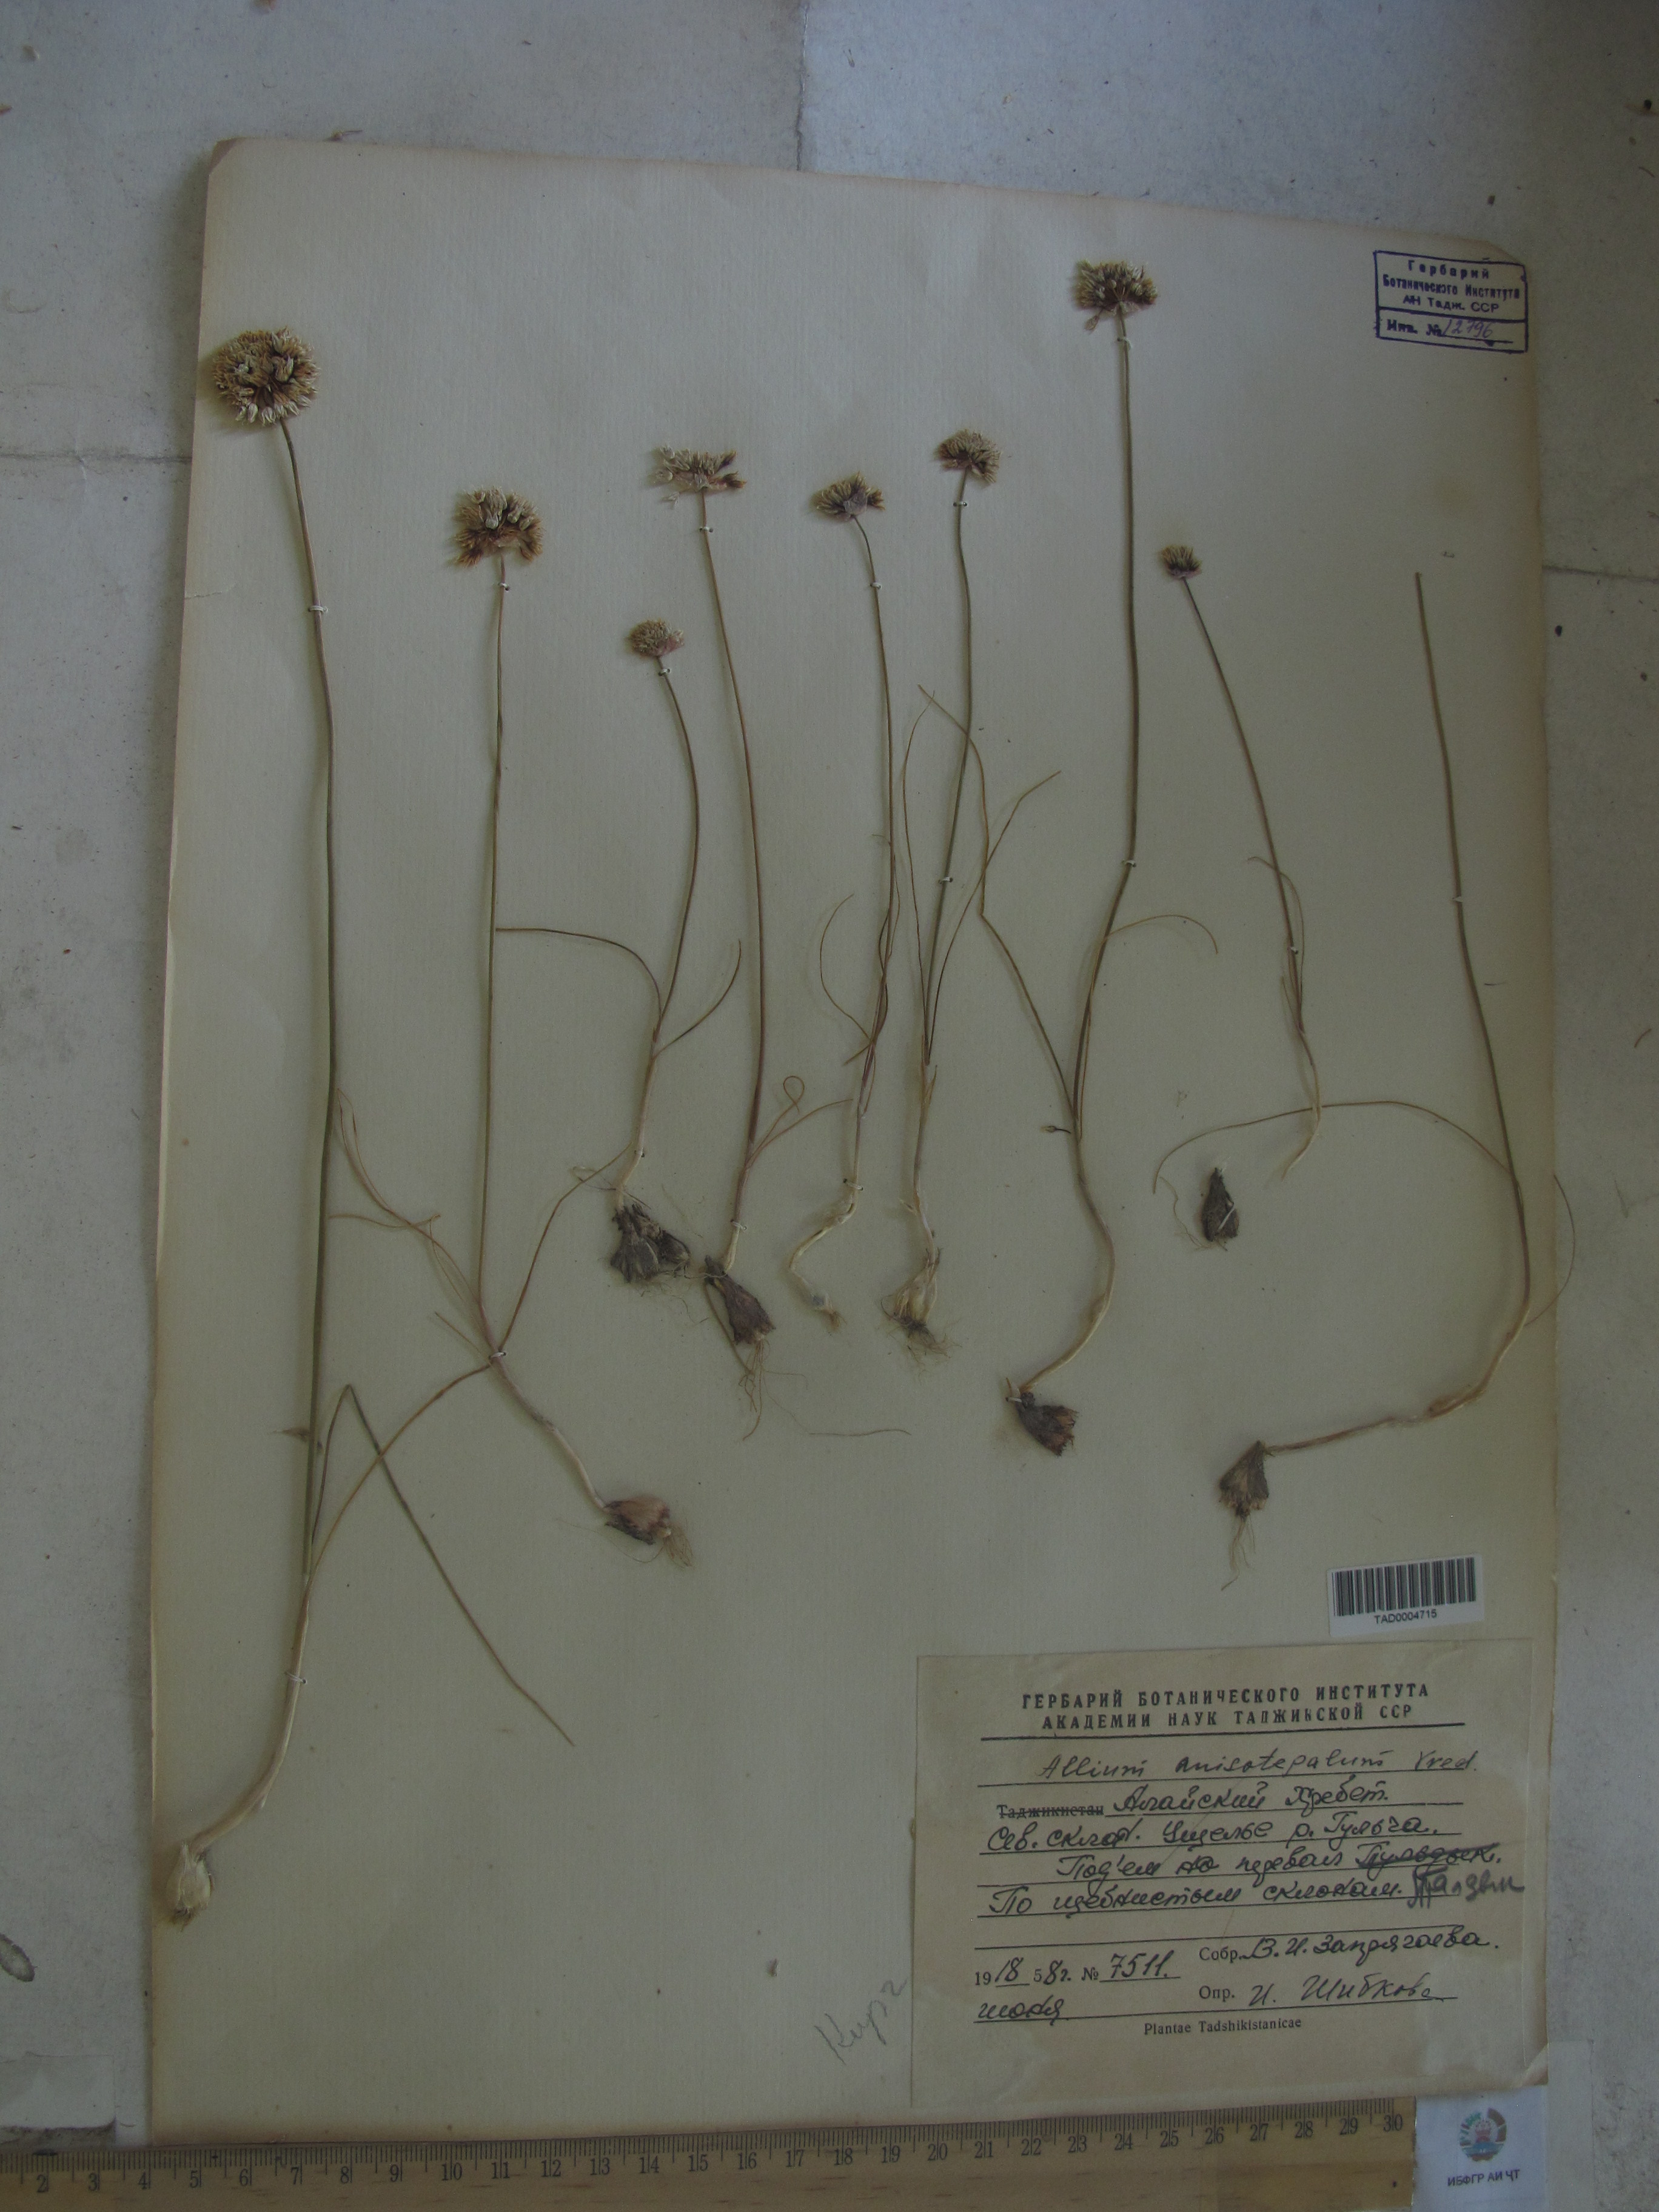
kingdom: Plantae
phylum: Tracheophyta
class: Liliopsida
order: Asparagales
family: Amaryllidaceae
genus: Allium
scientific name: Allium anisotepalum
